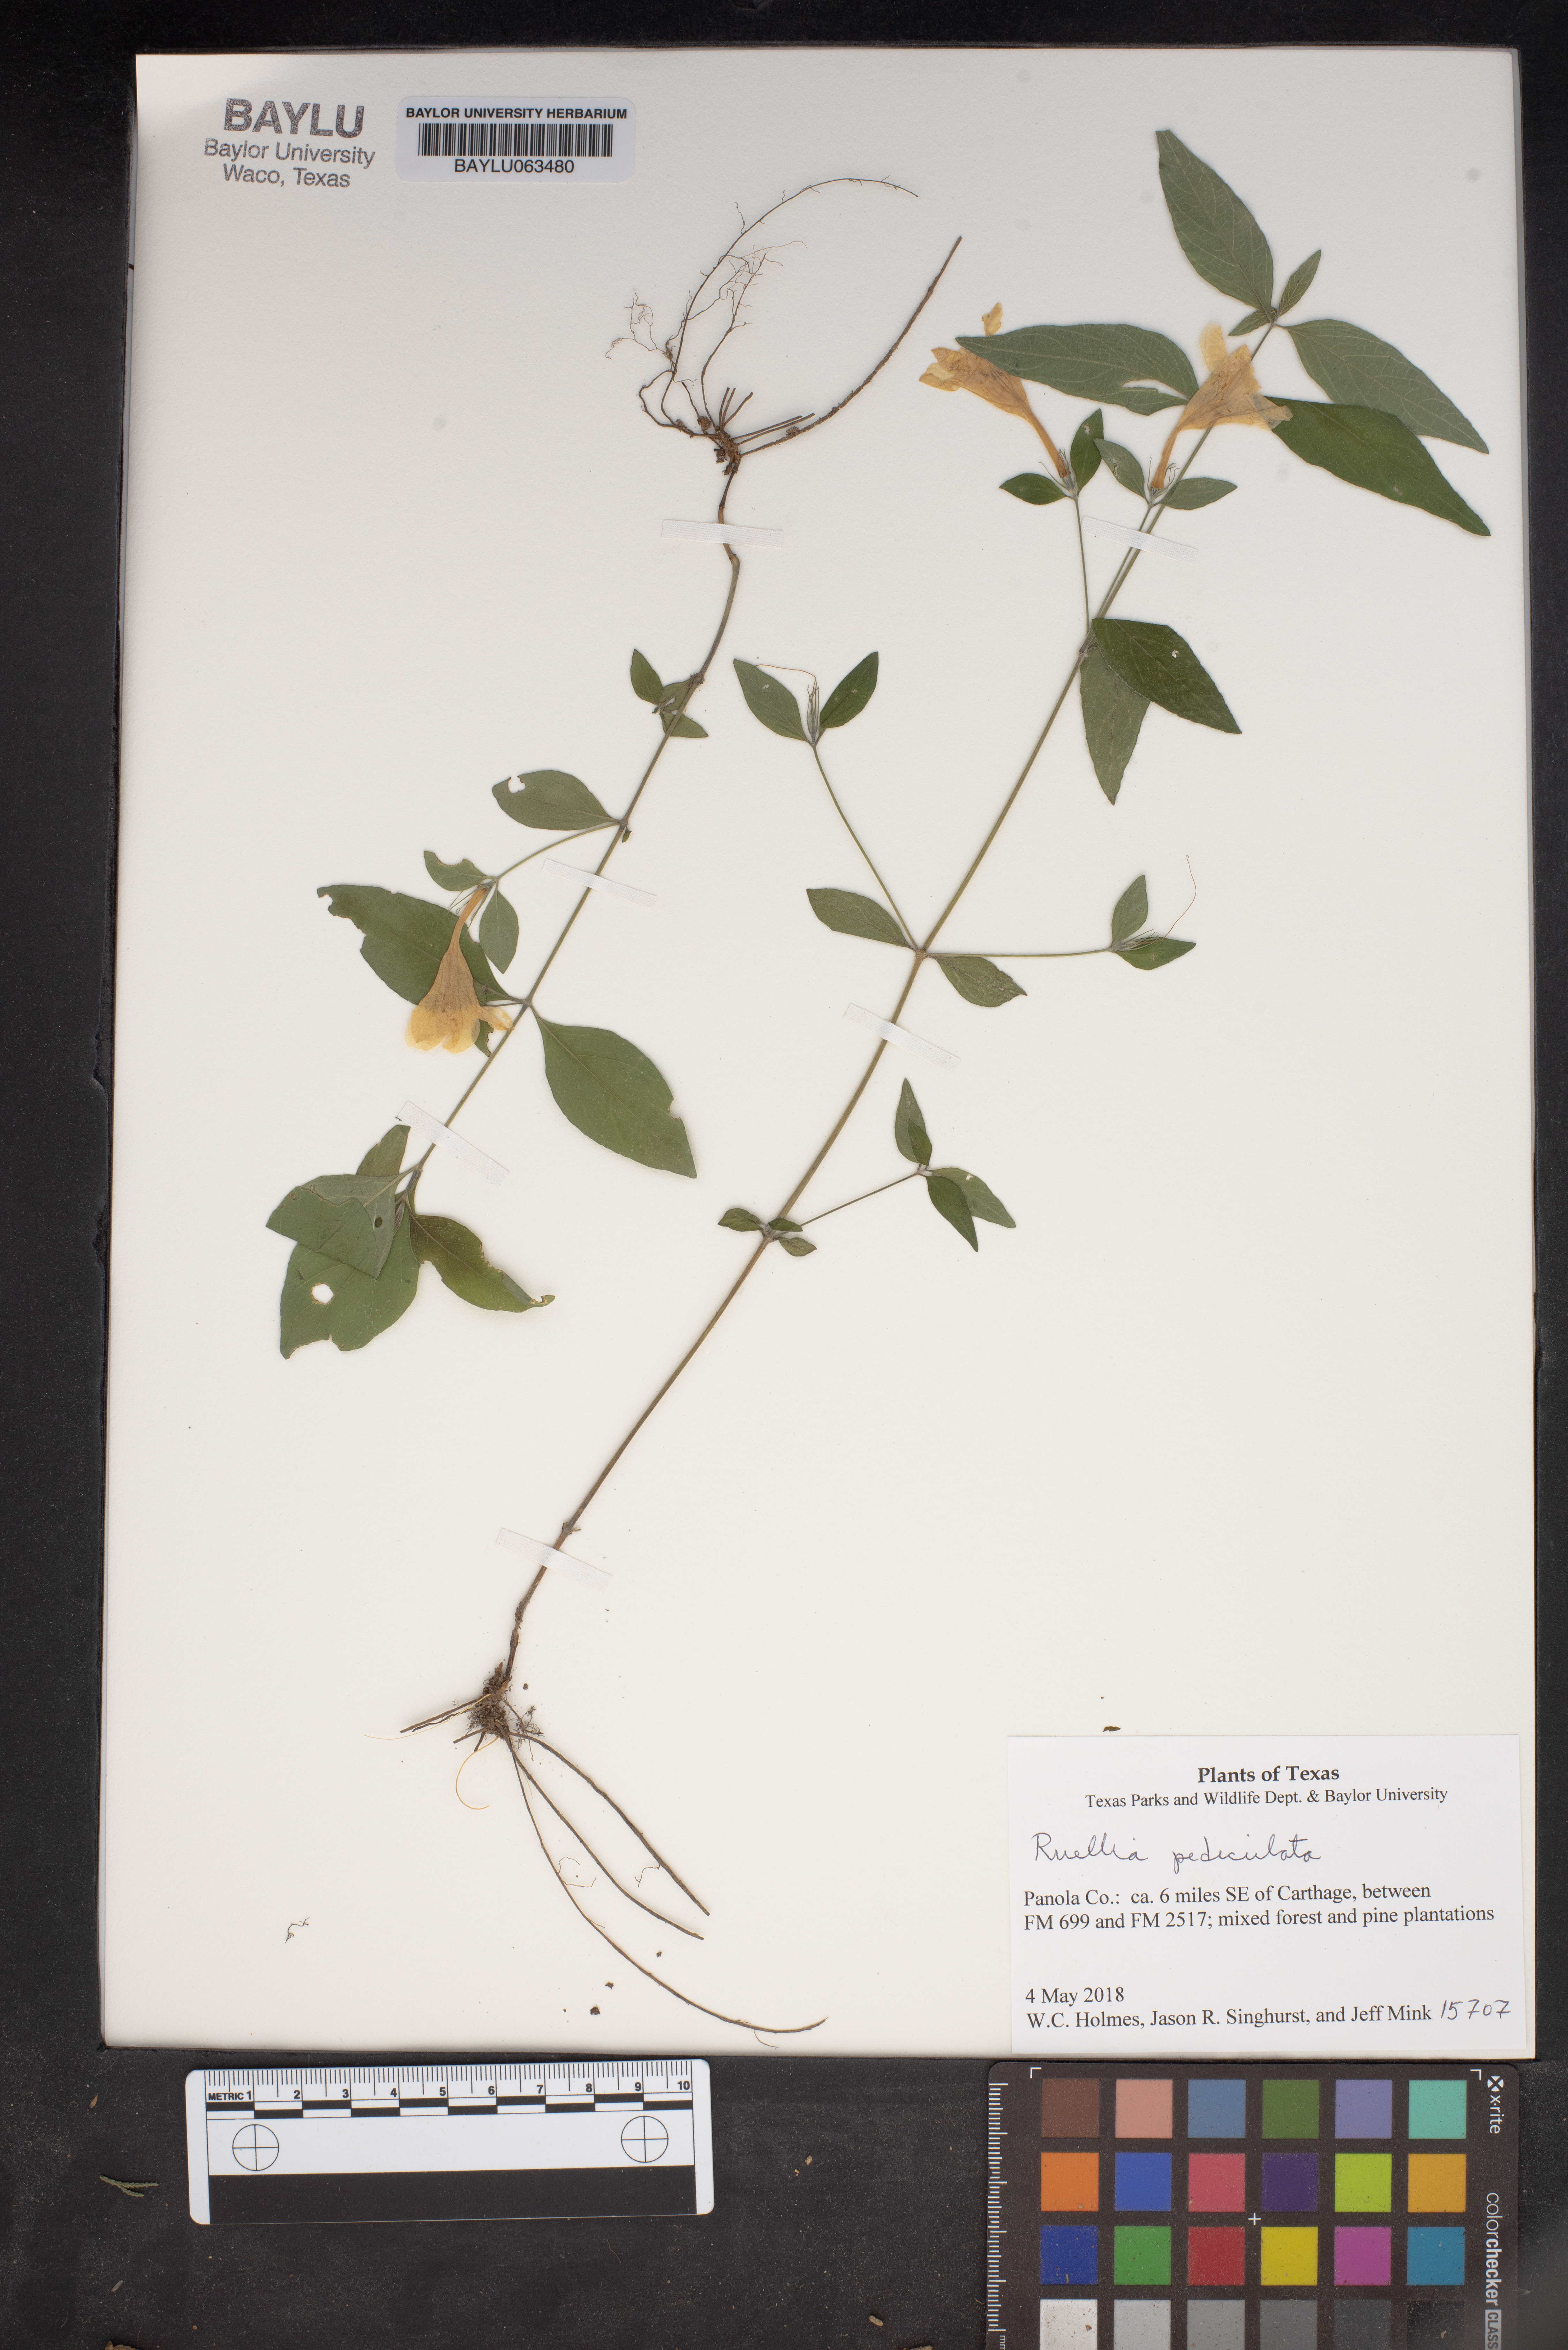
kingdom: Plantae
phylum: Tracheophyta
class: Magnoliopsida
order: Lamiales
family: Acanthaceae
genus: Ruellia
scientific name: Ruellia pedunculata
